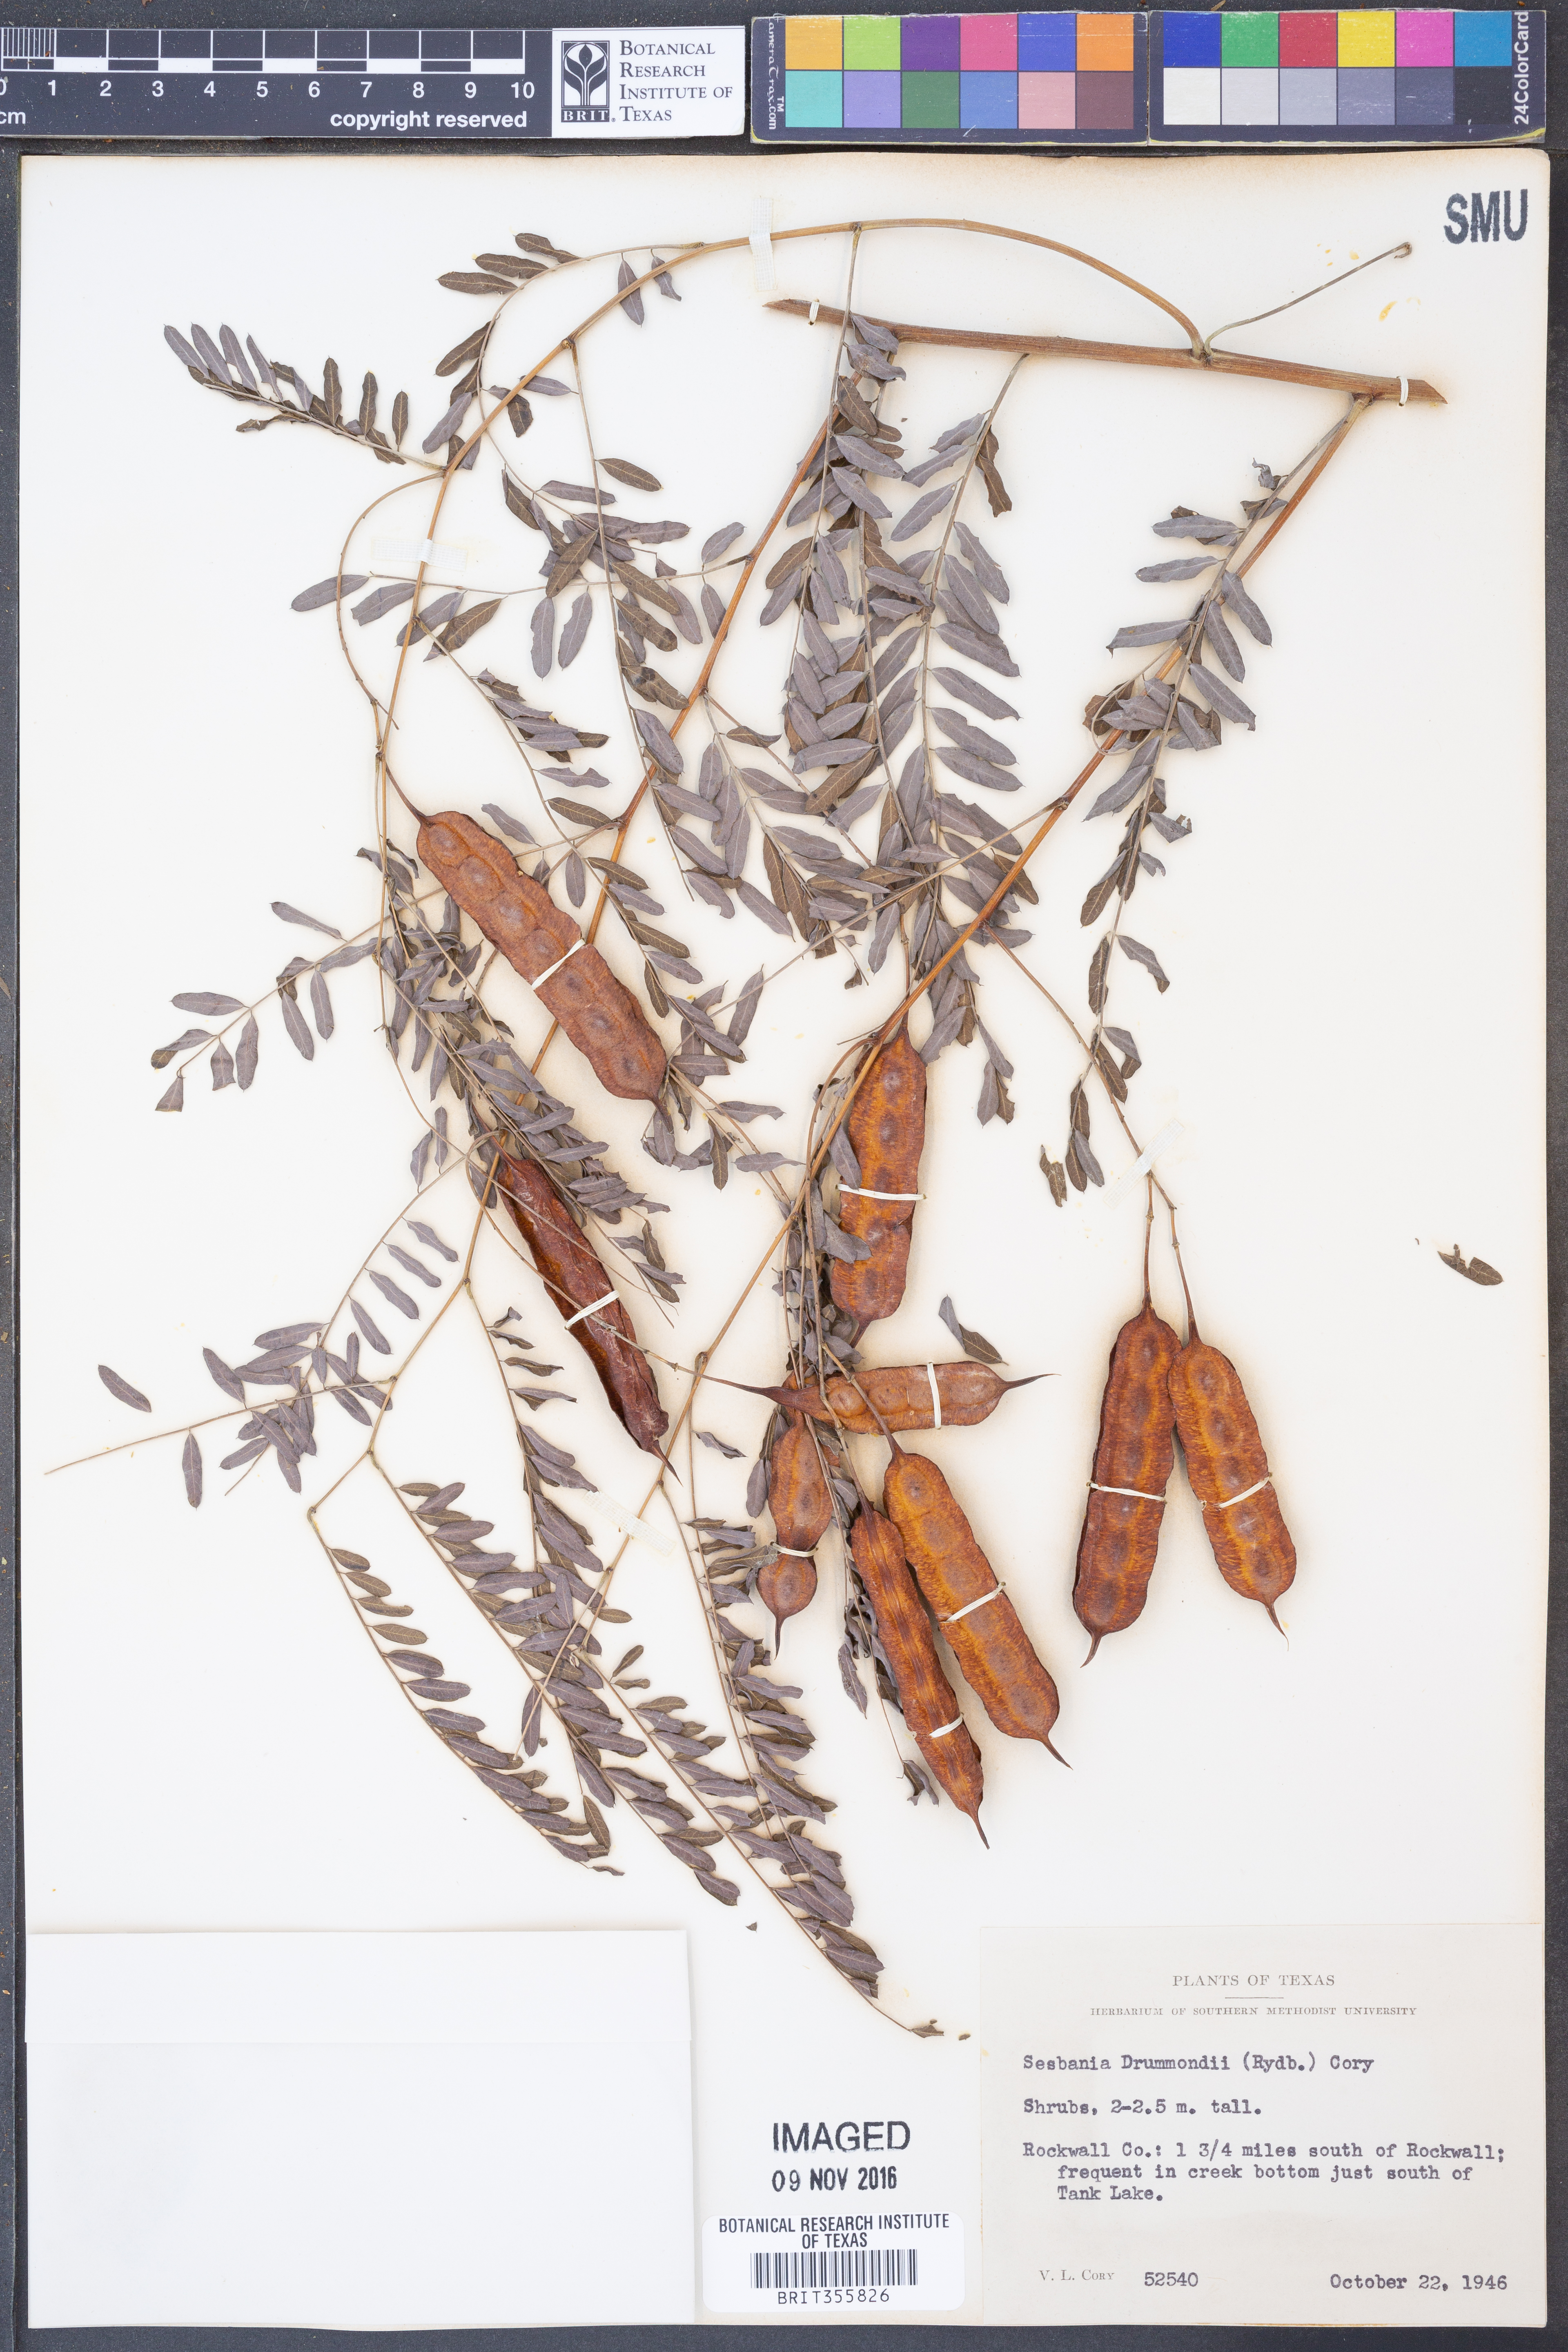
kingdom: Plantae
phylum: Tracheophyta
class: Magnoliopsida
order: Fabales
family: Fabaceae
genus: Sesbania
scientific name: Sesbania drummondii
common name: Poison-bean
